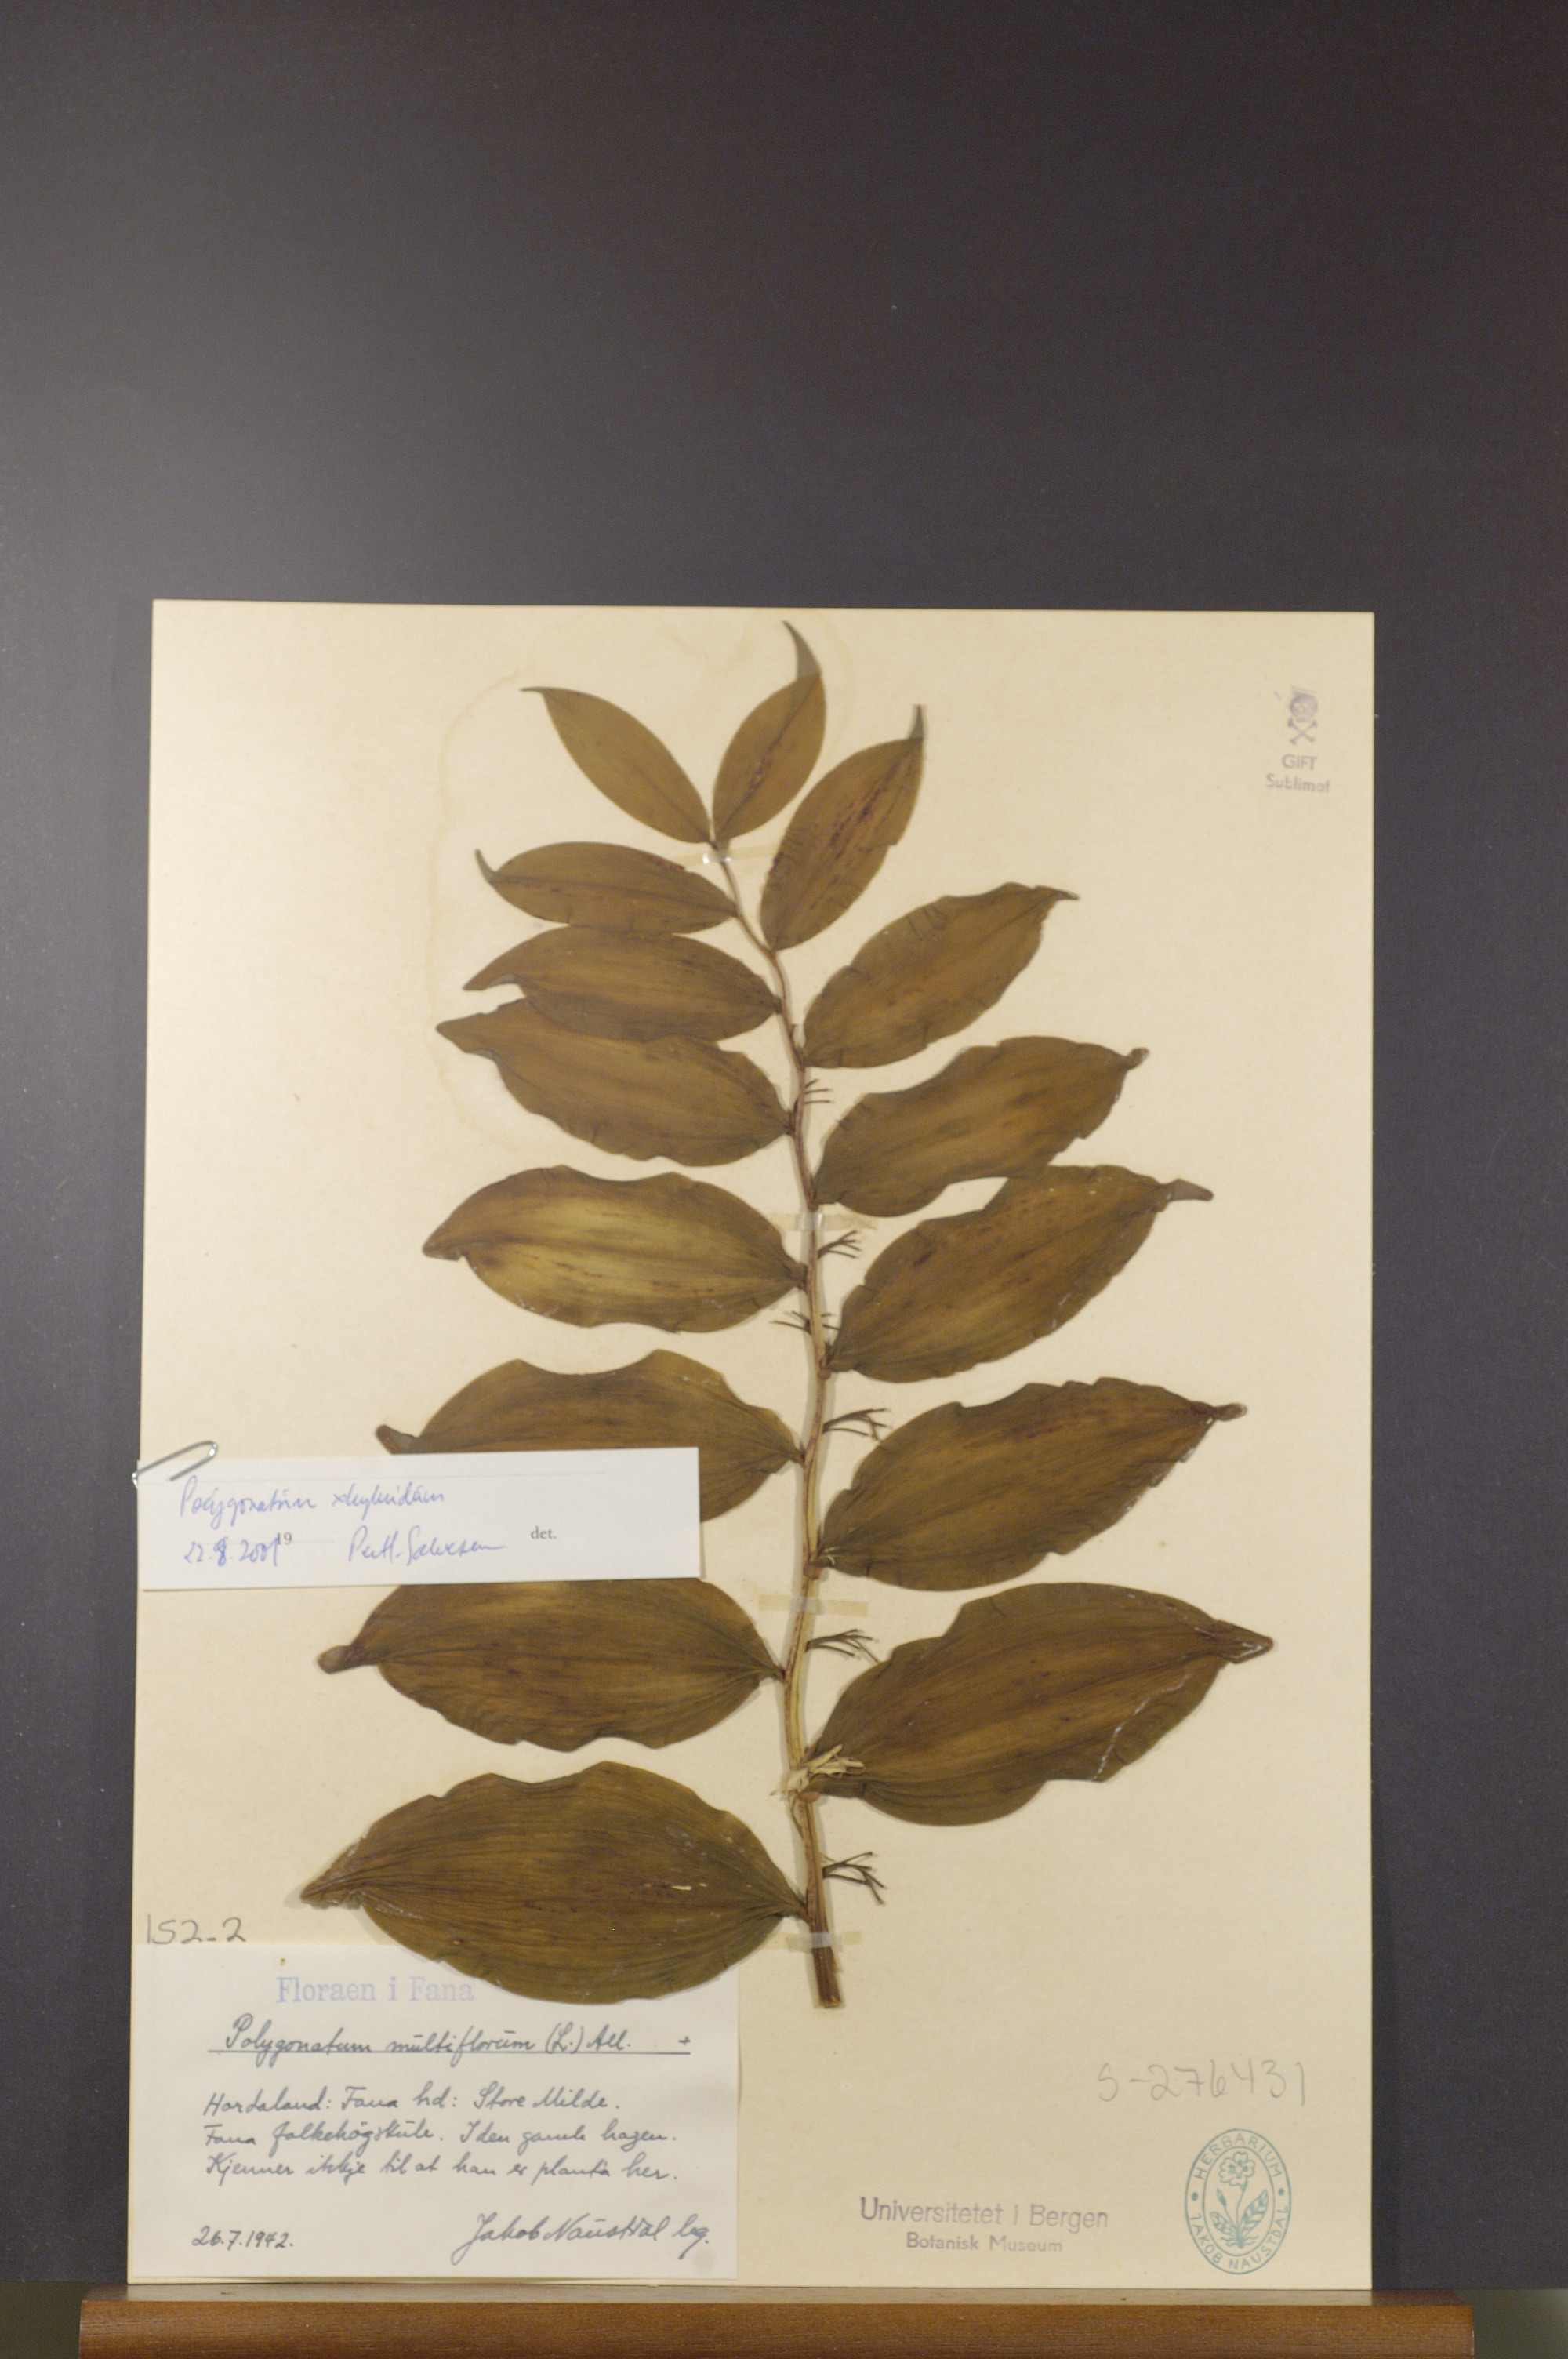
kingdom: Plantae
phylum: Tracheophyta
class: Liliopsida
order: Asparagales
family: Asparagaceae
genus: Polygonatum
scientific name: Polygonatum hybridum
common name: Garden solomon's-seal
